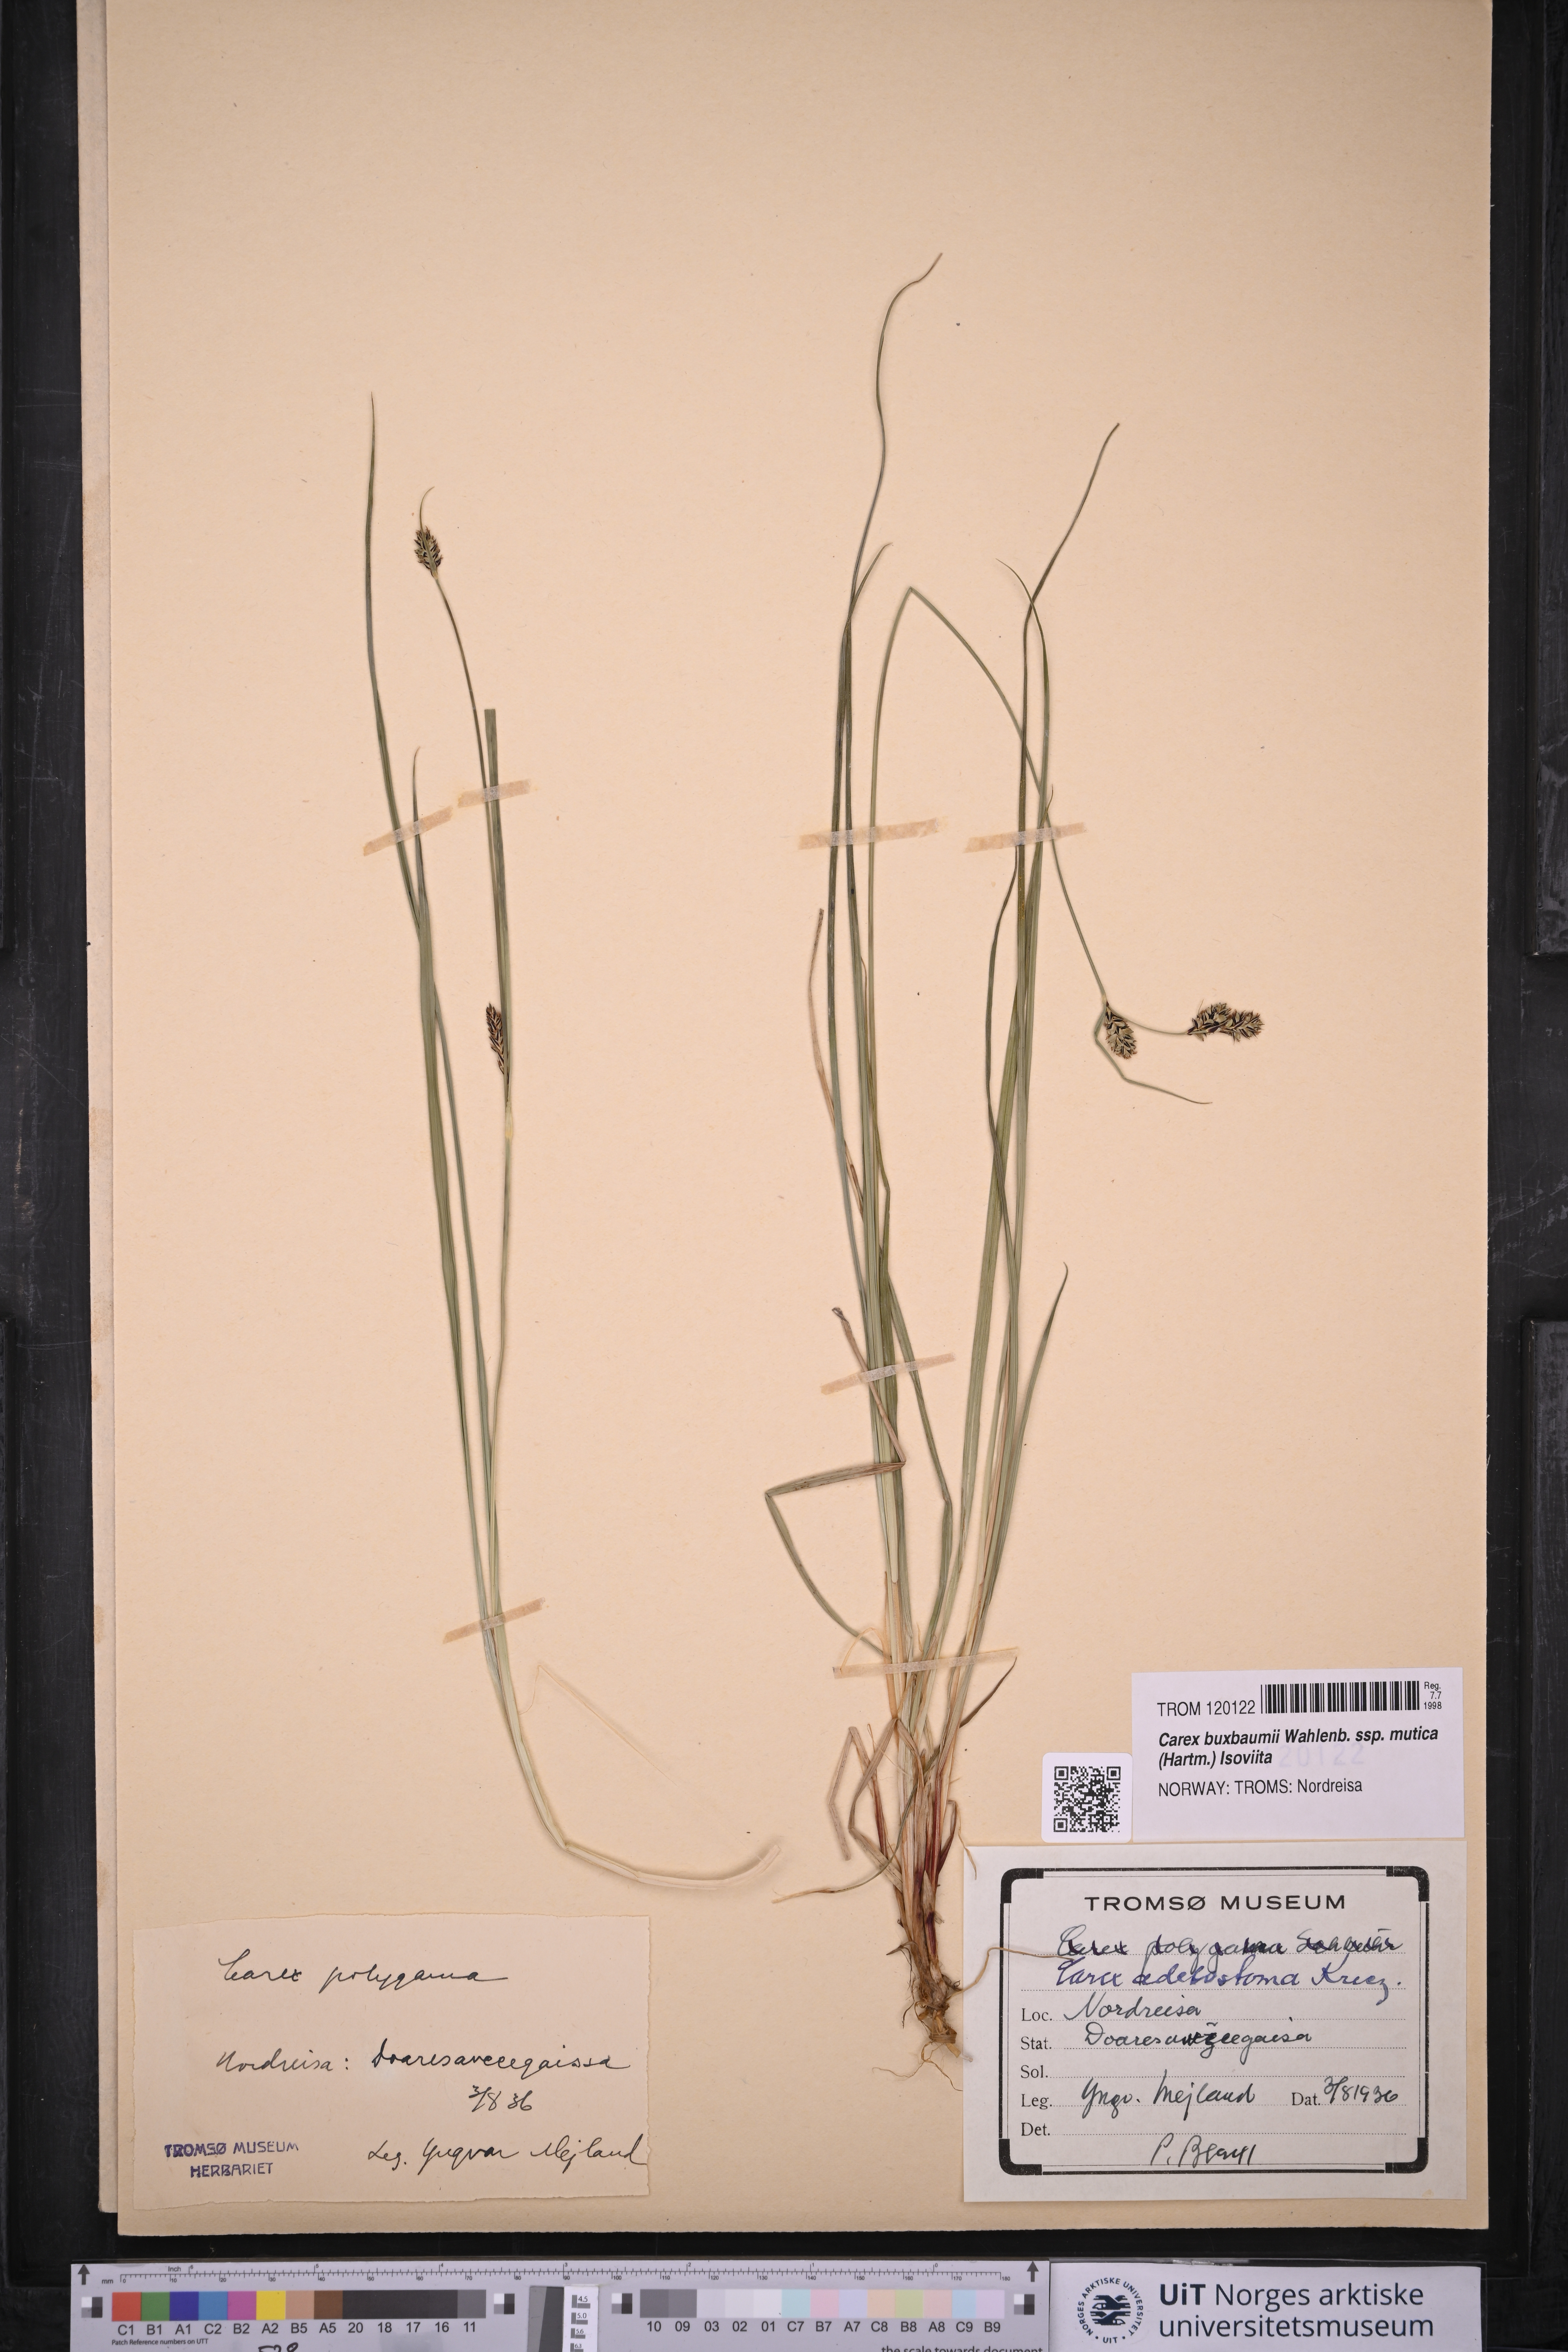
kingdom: Plantae
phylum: Tracheophyta
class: Liliopsida
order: Poales
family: Cyperaceae
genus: Carex
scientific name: Carex adelostoma
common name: Circumpolar sedge
